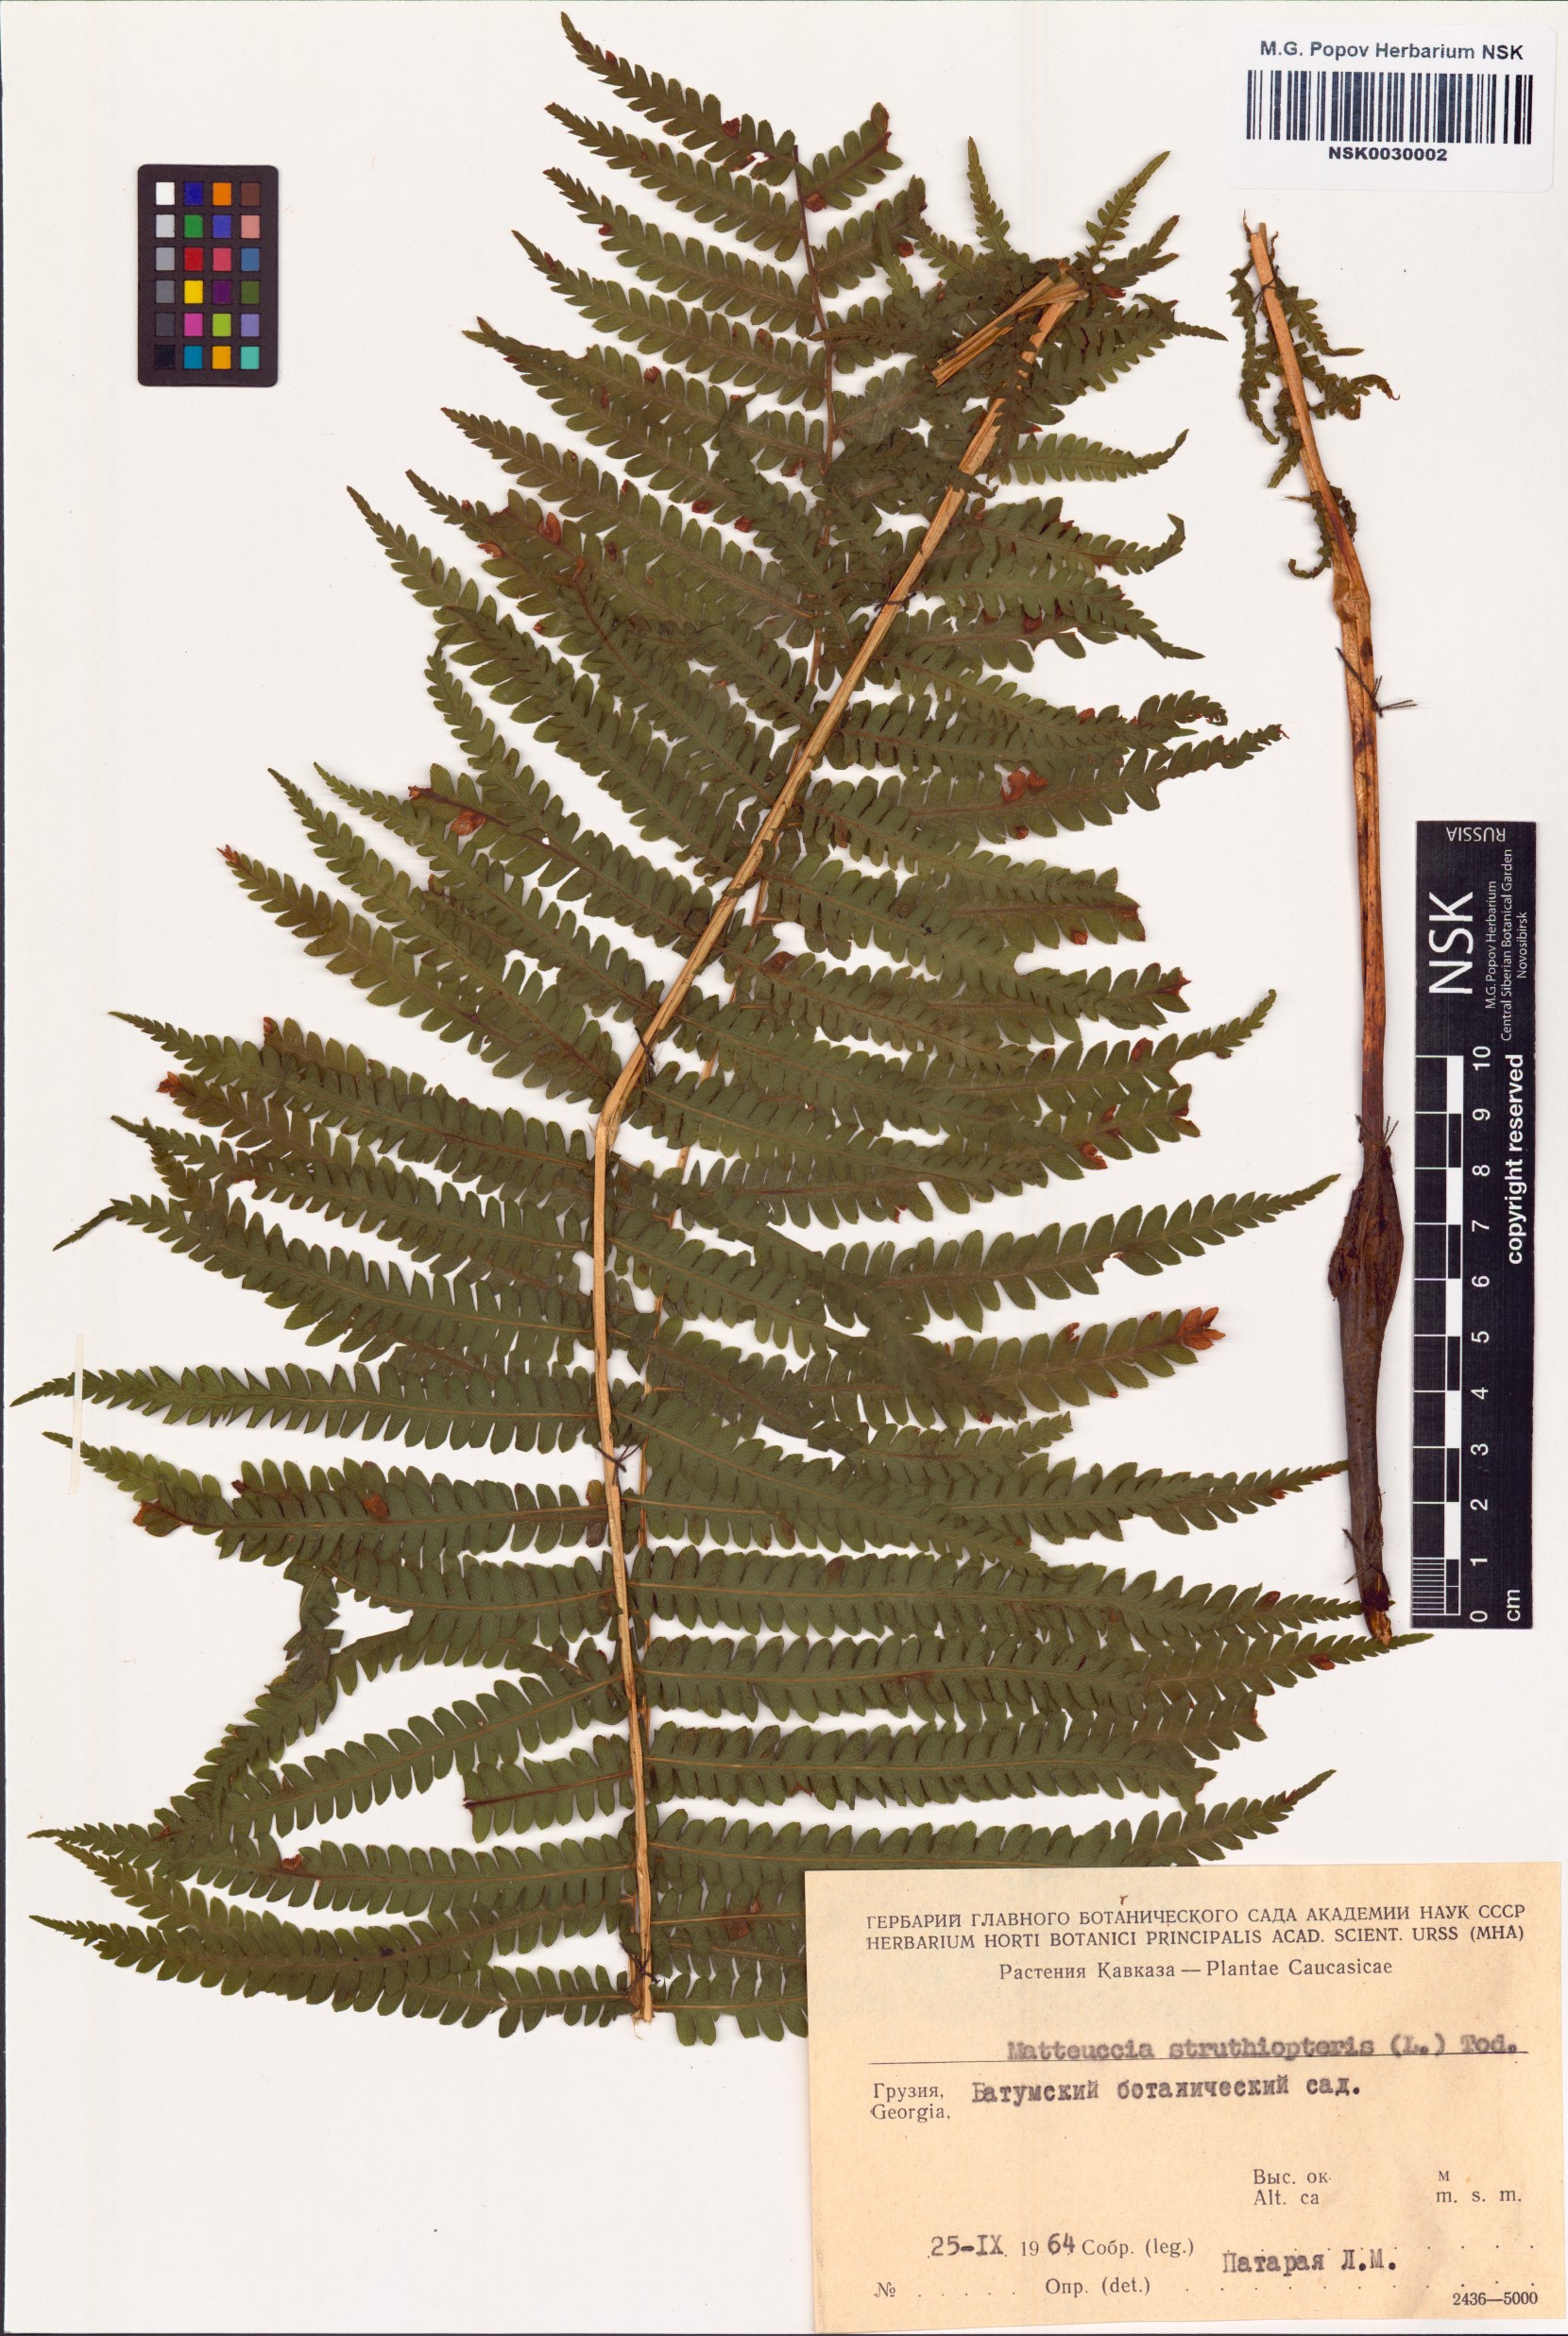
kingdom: Plantae
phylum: Tracheophyta
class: Polypodiopsida
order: Polypodiales
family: Onocleaceae
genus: Matteuccia
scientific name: Matteuccia struthiopteris
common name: Ostrich fern
